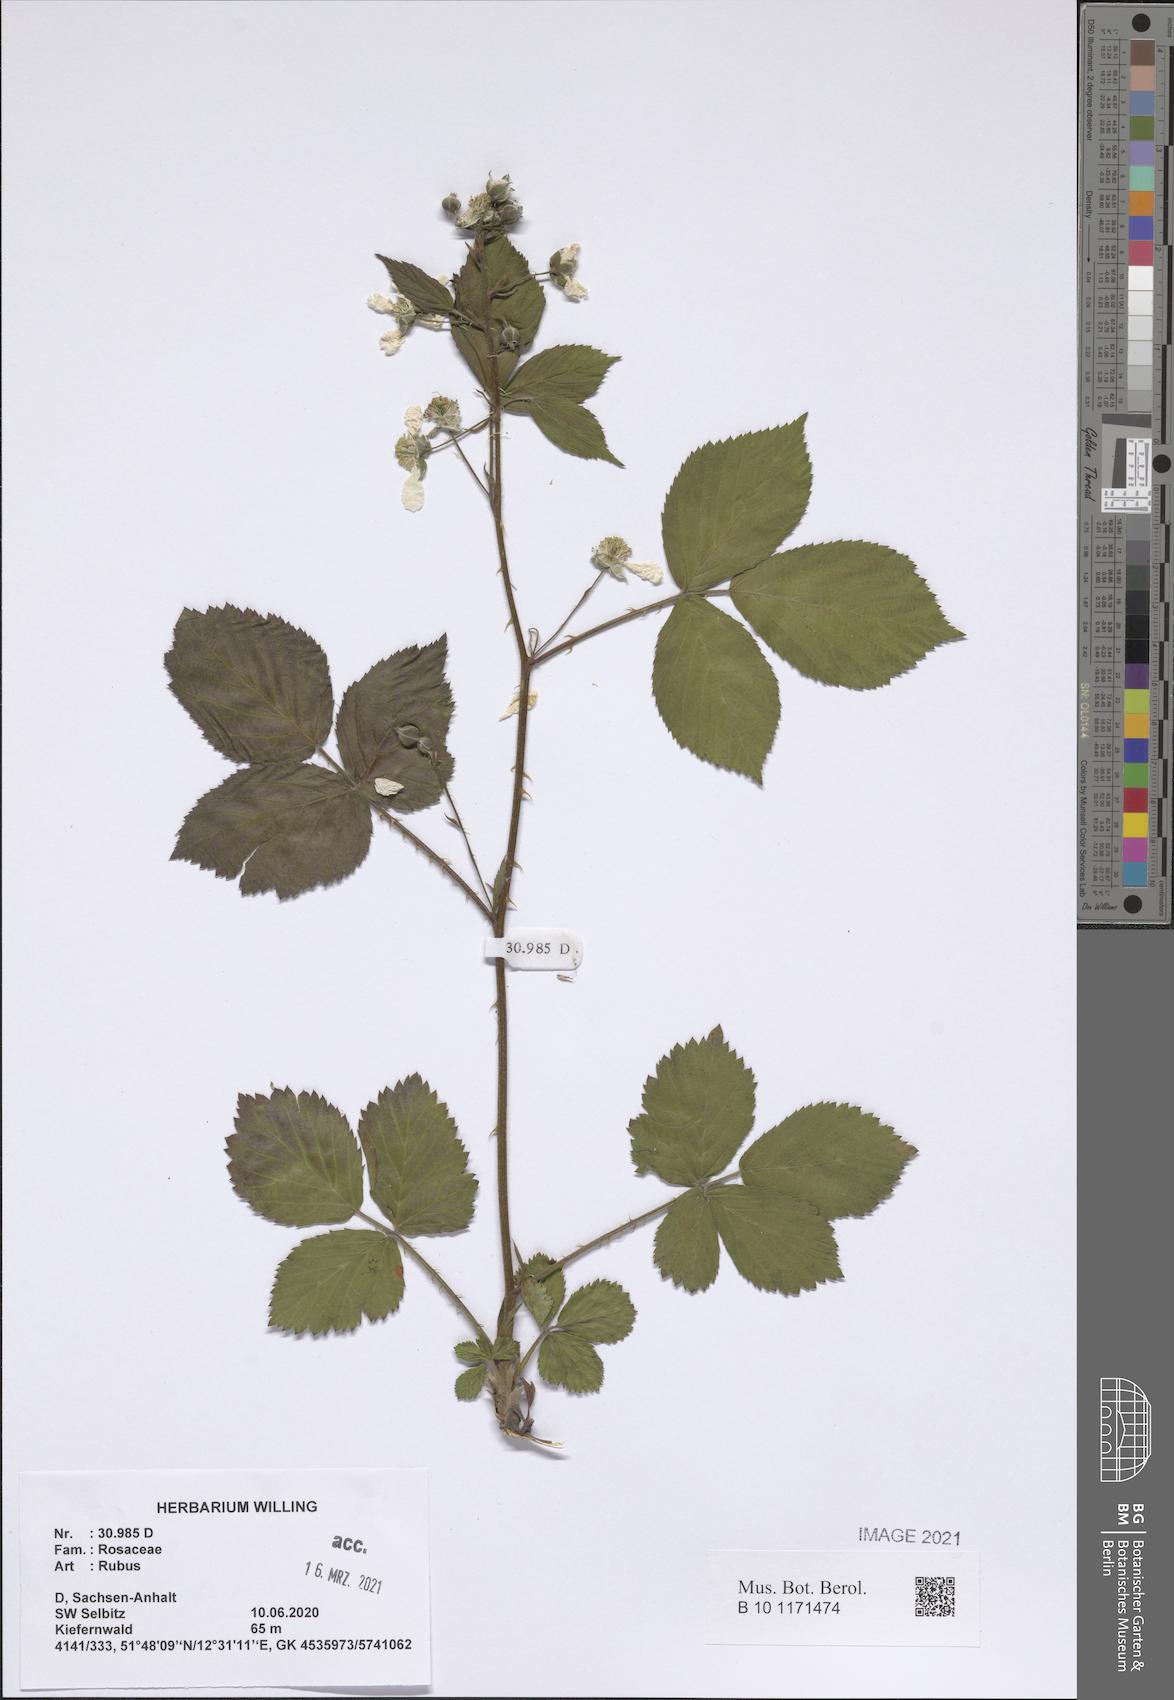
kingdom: Plantae
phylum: Tracheophyta
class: Magnoliopsida
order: Rosales
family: Rosaceae
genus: Rubus
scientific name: Rubus
